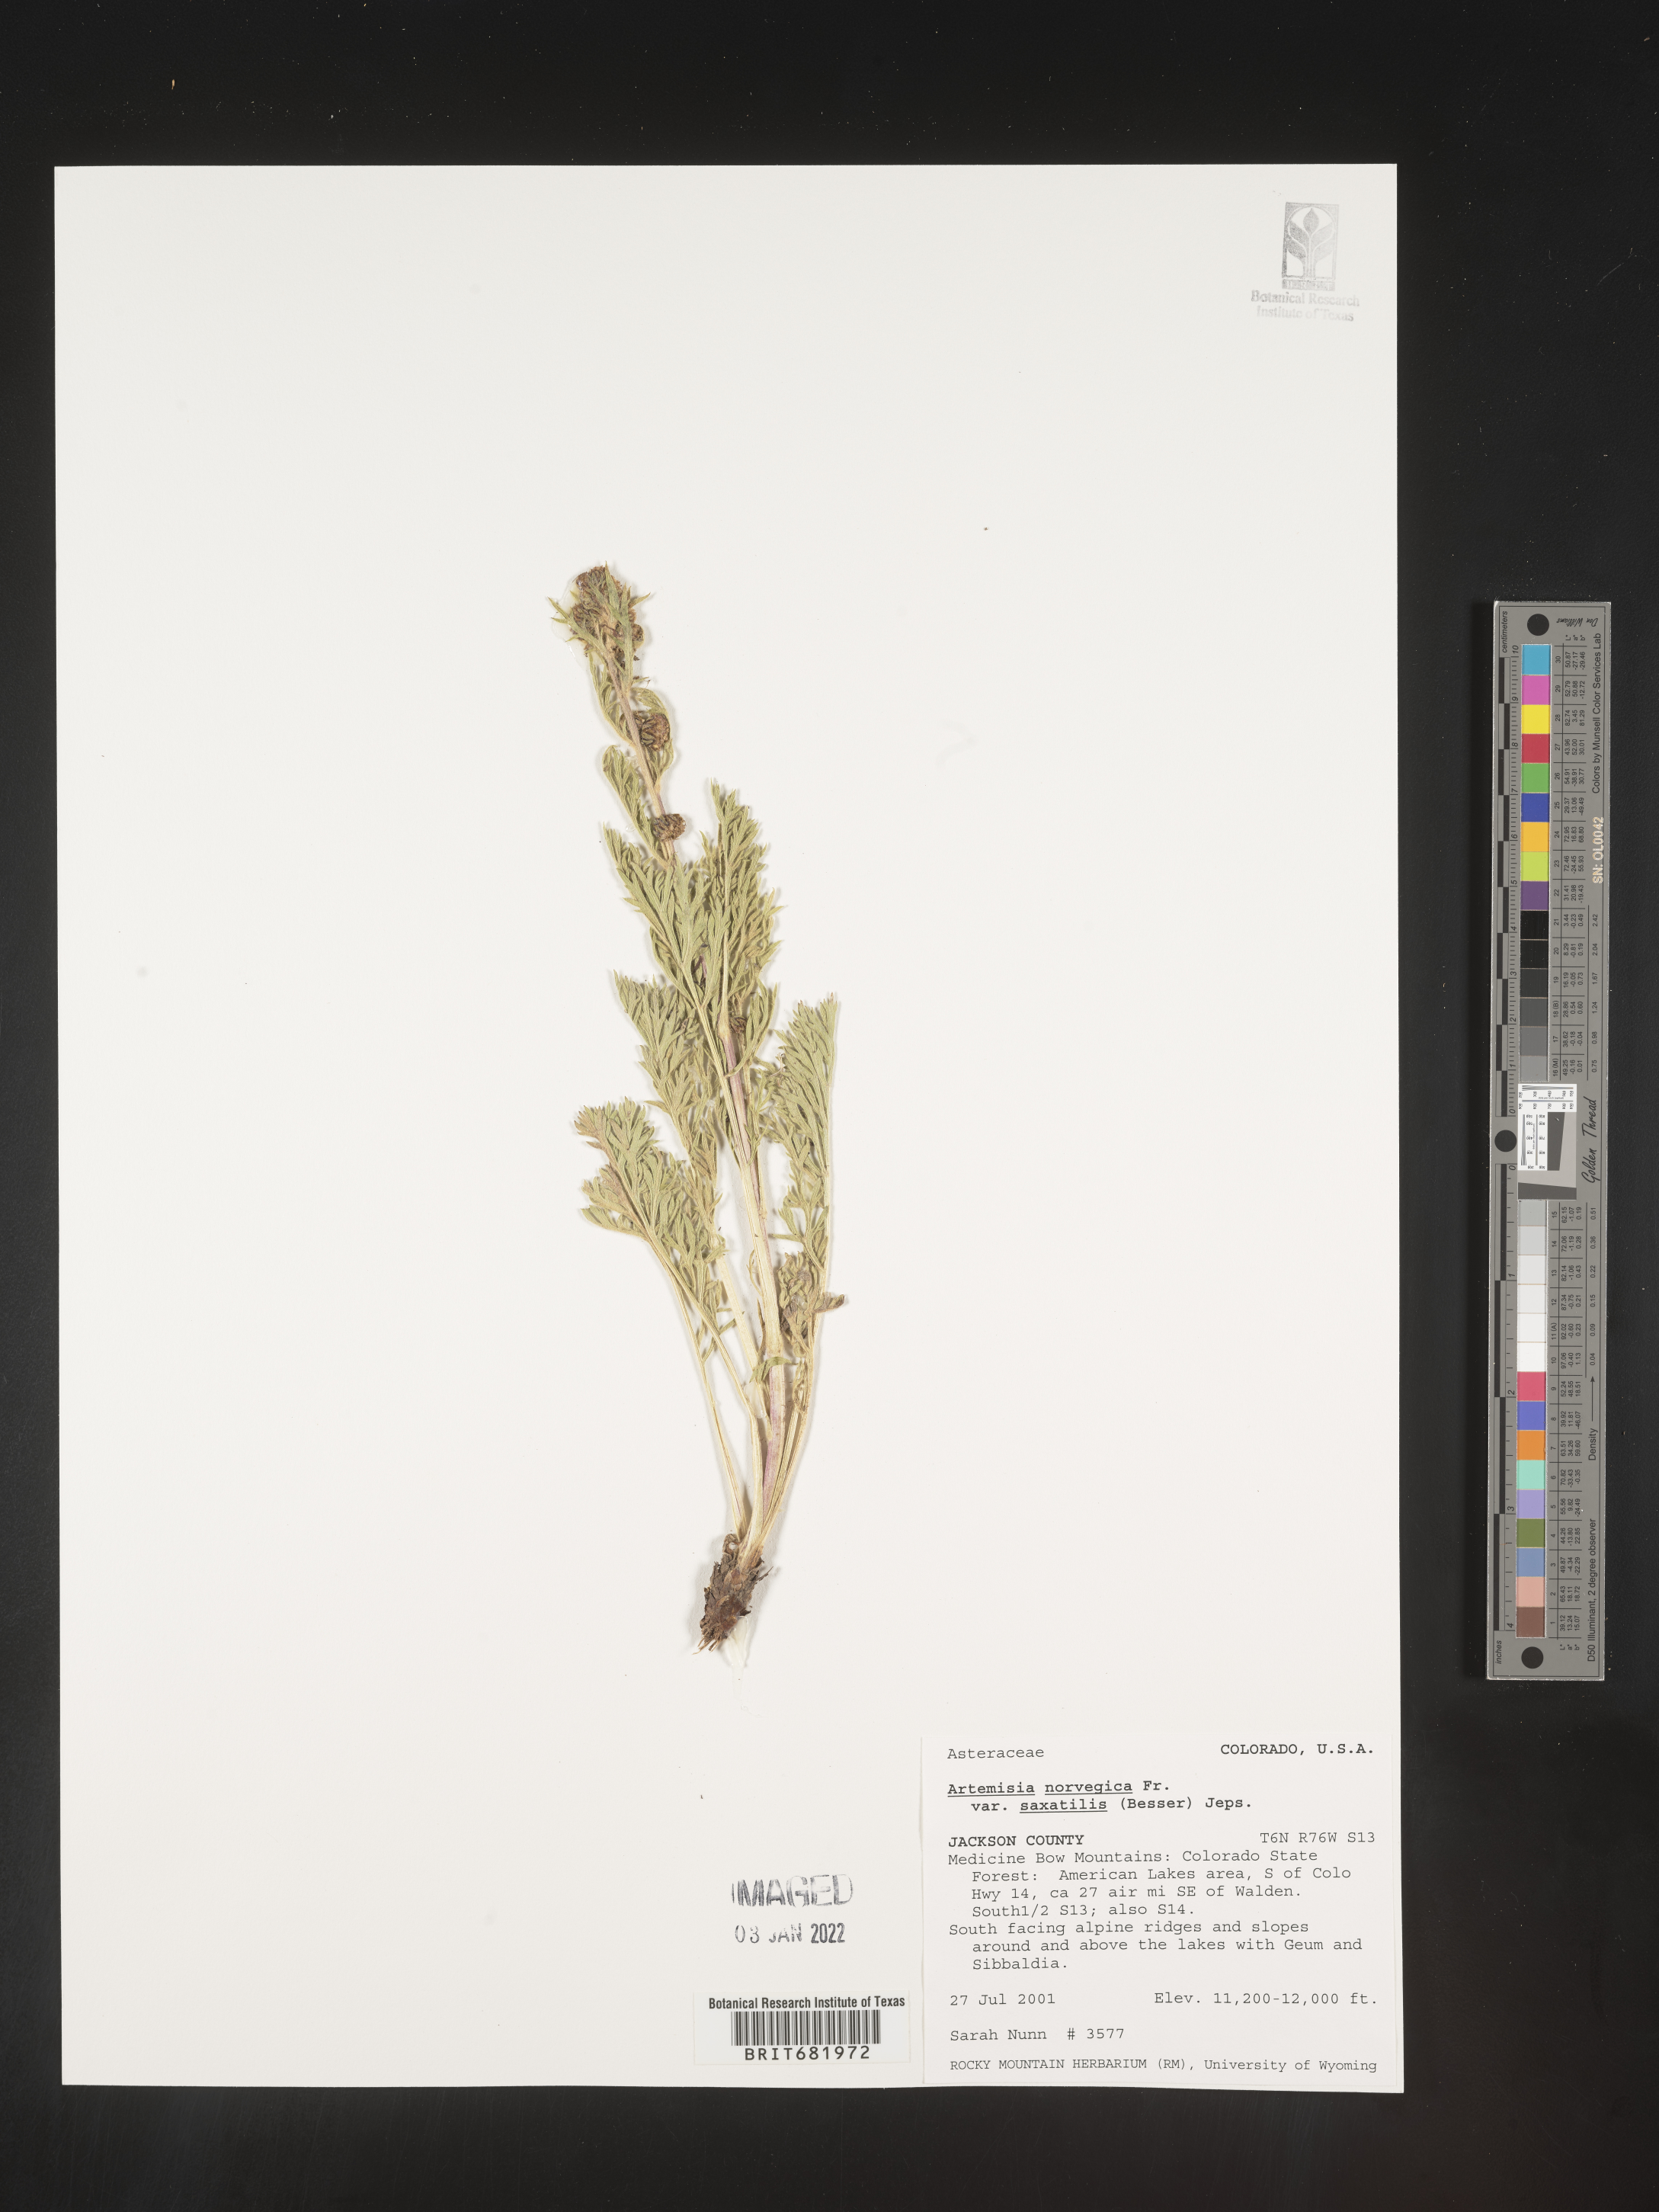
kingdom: Plantae
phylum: Tracheophyta
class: Magnoliopsida
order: Asterales
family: Asteraceae
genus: Artemisia
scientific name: Artemisia norvegica
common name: Norwegian mugwort
